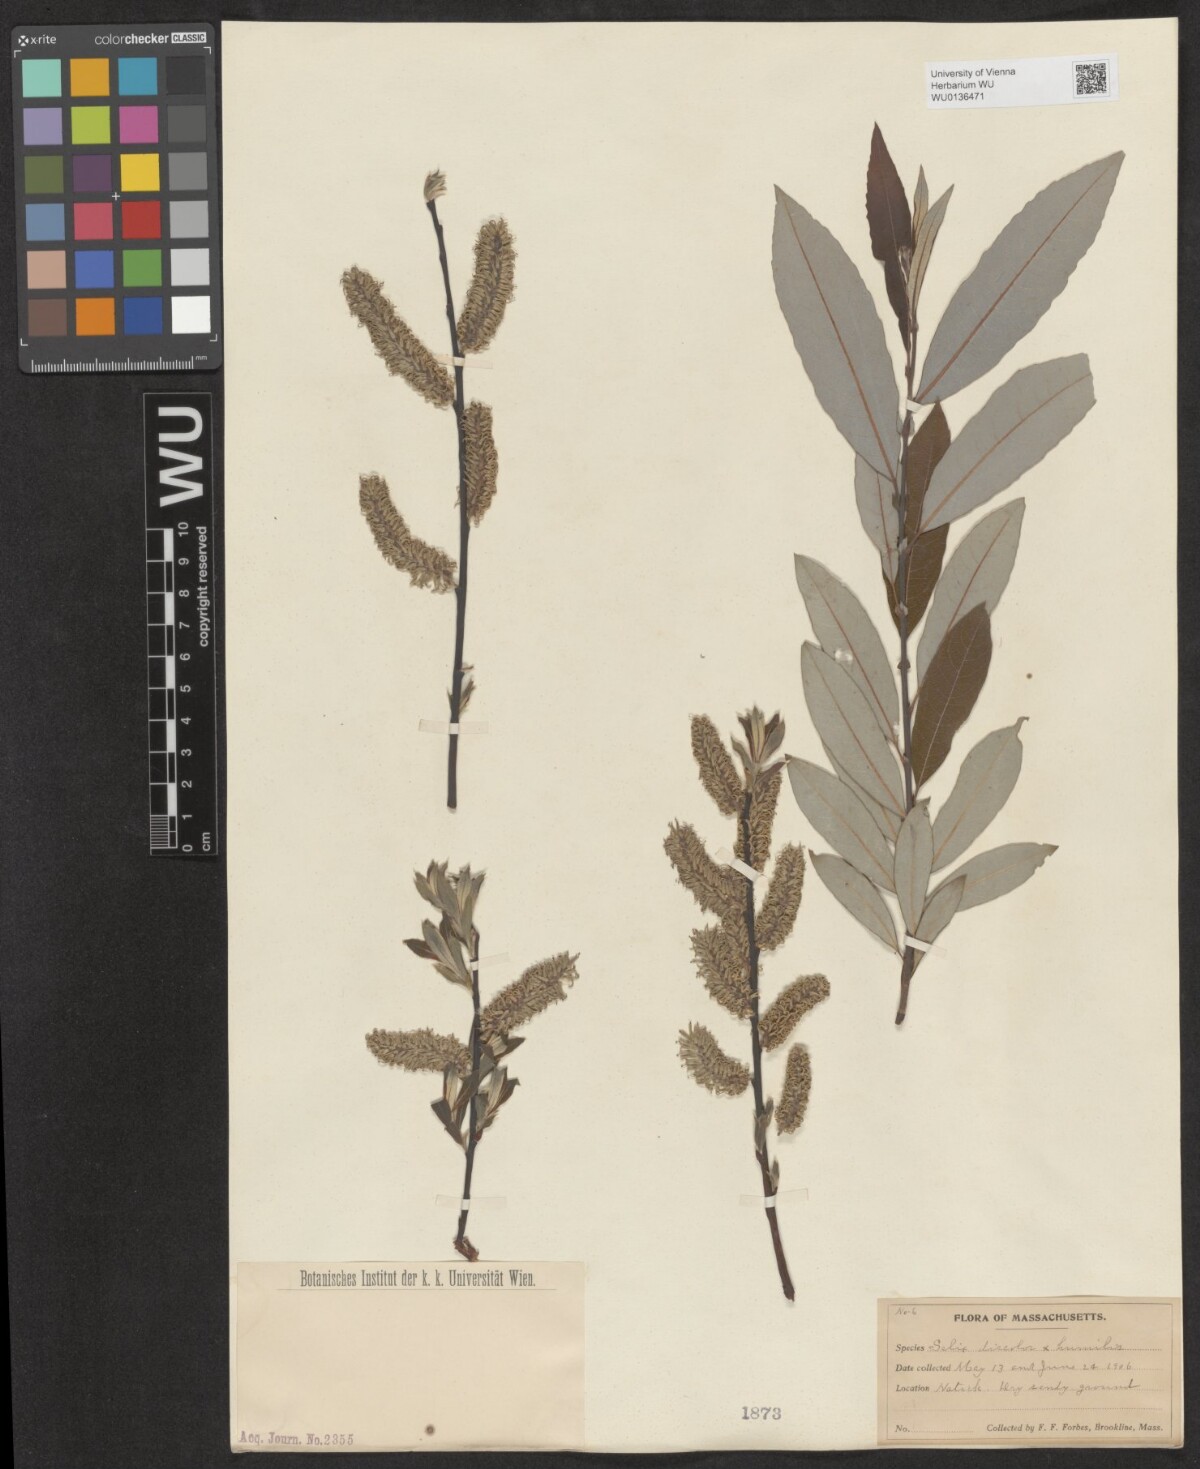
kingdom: Plantae
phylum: Tracheophyta
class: Magnoliopsida
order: Malpighiales
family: Salicaceae
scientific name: Salicaceae
